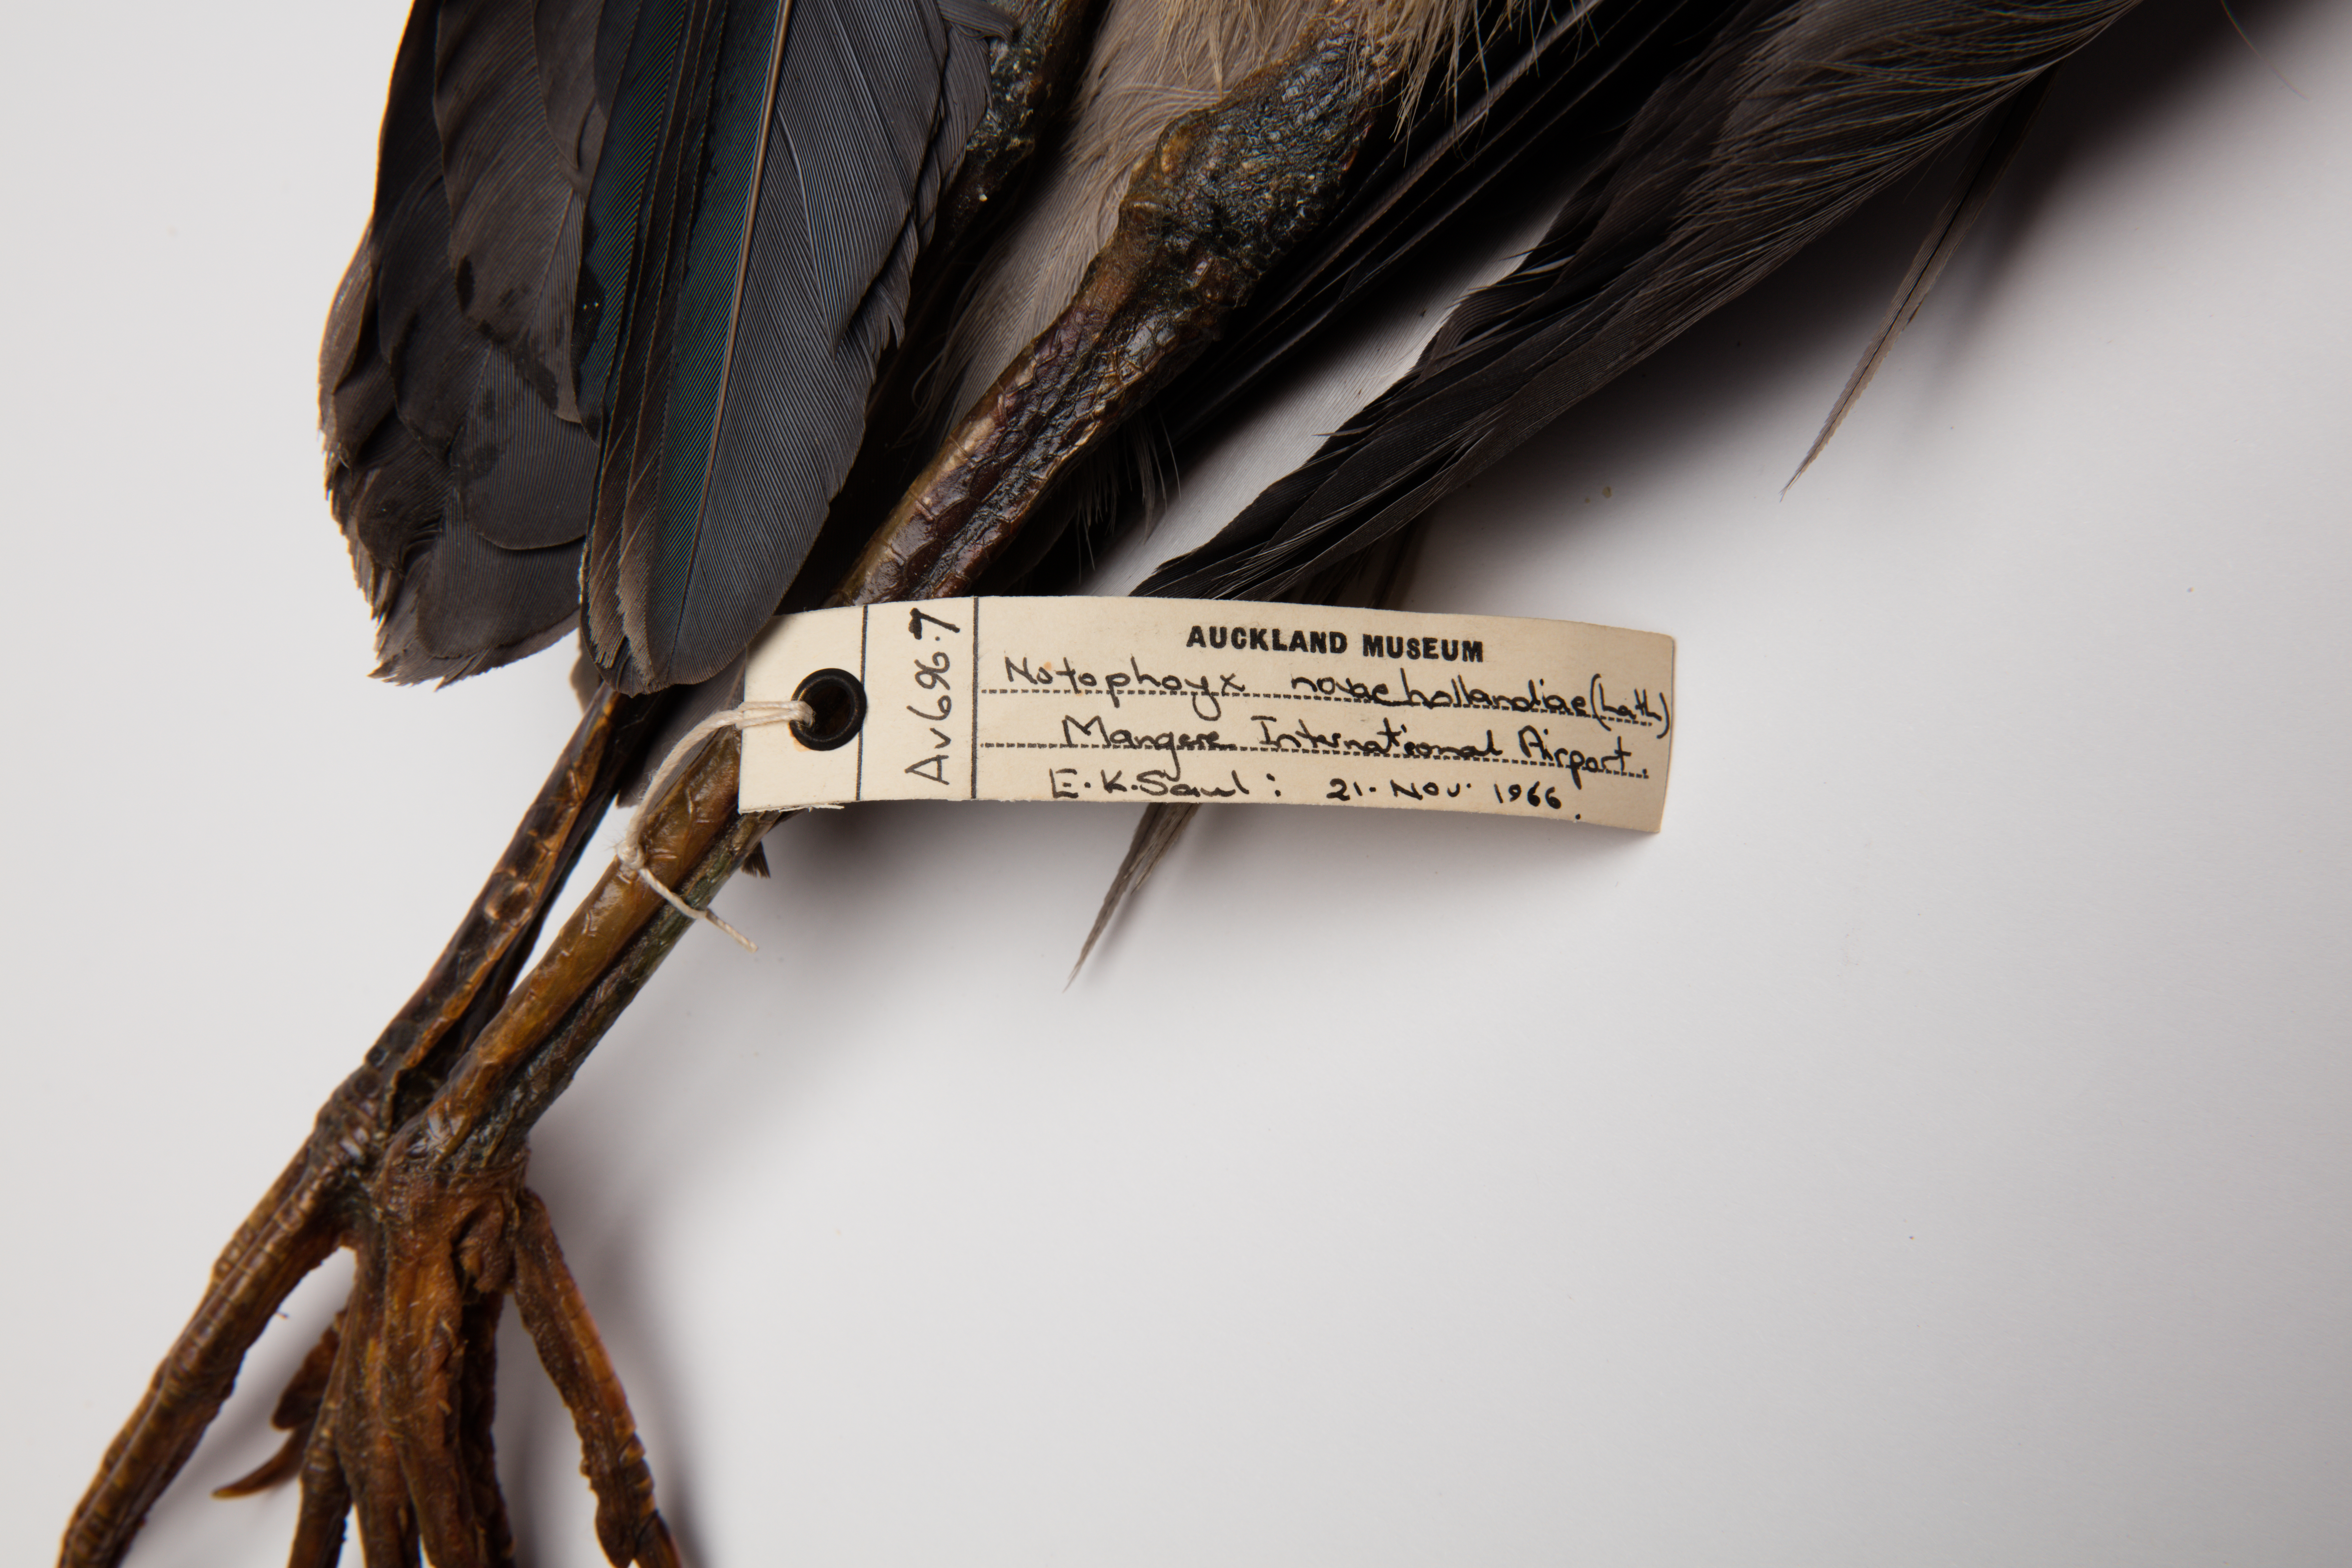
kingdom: Animalia
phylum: Chordata
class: Aves
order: Pelecaniformes
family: Ardeidae
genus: Egretta
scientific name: Egretta novaehollandiae
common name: White-faced heron
